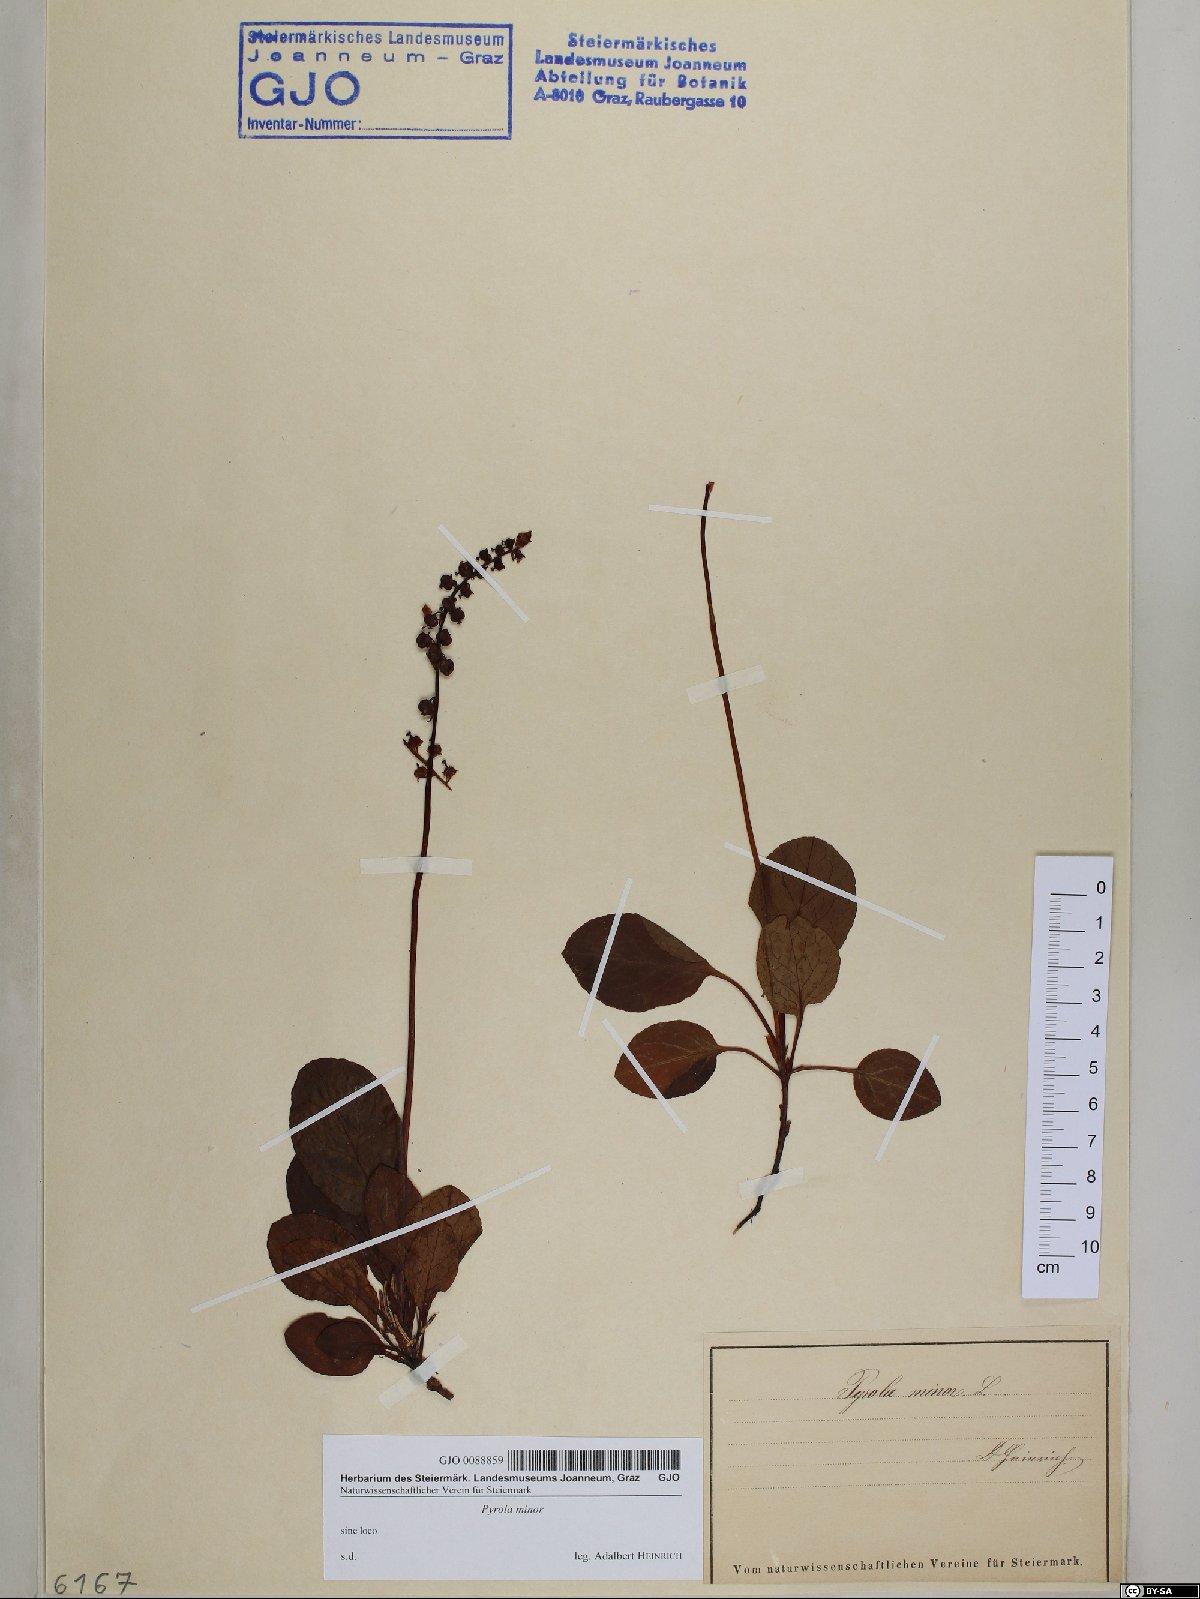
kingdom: Plantae
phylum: Tracheophyta
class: Magnoliopsida
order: Ericales
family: Ericaceae
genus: Pyrola
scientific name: Pyrola minor
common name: Common wintergreen
